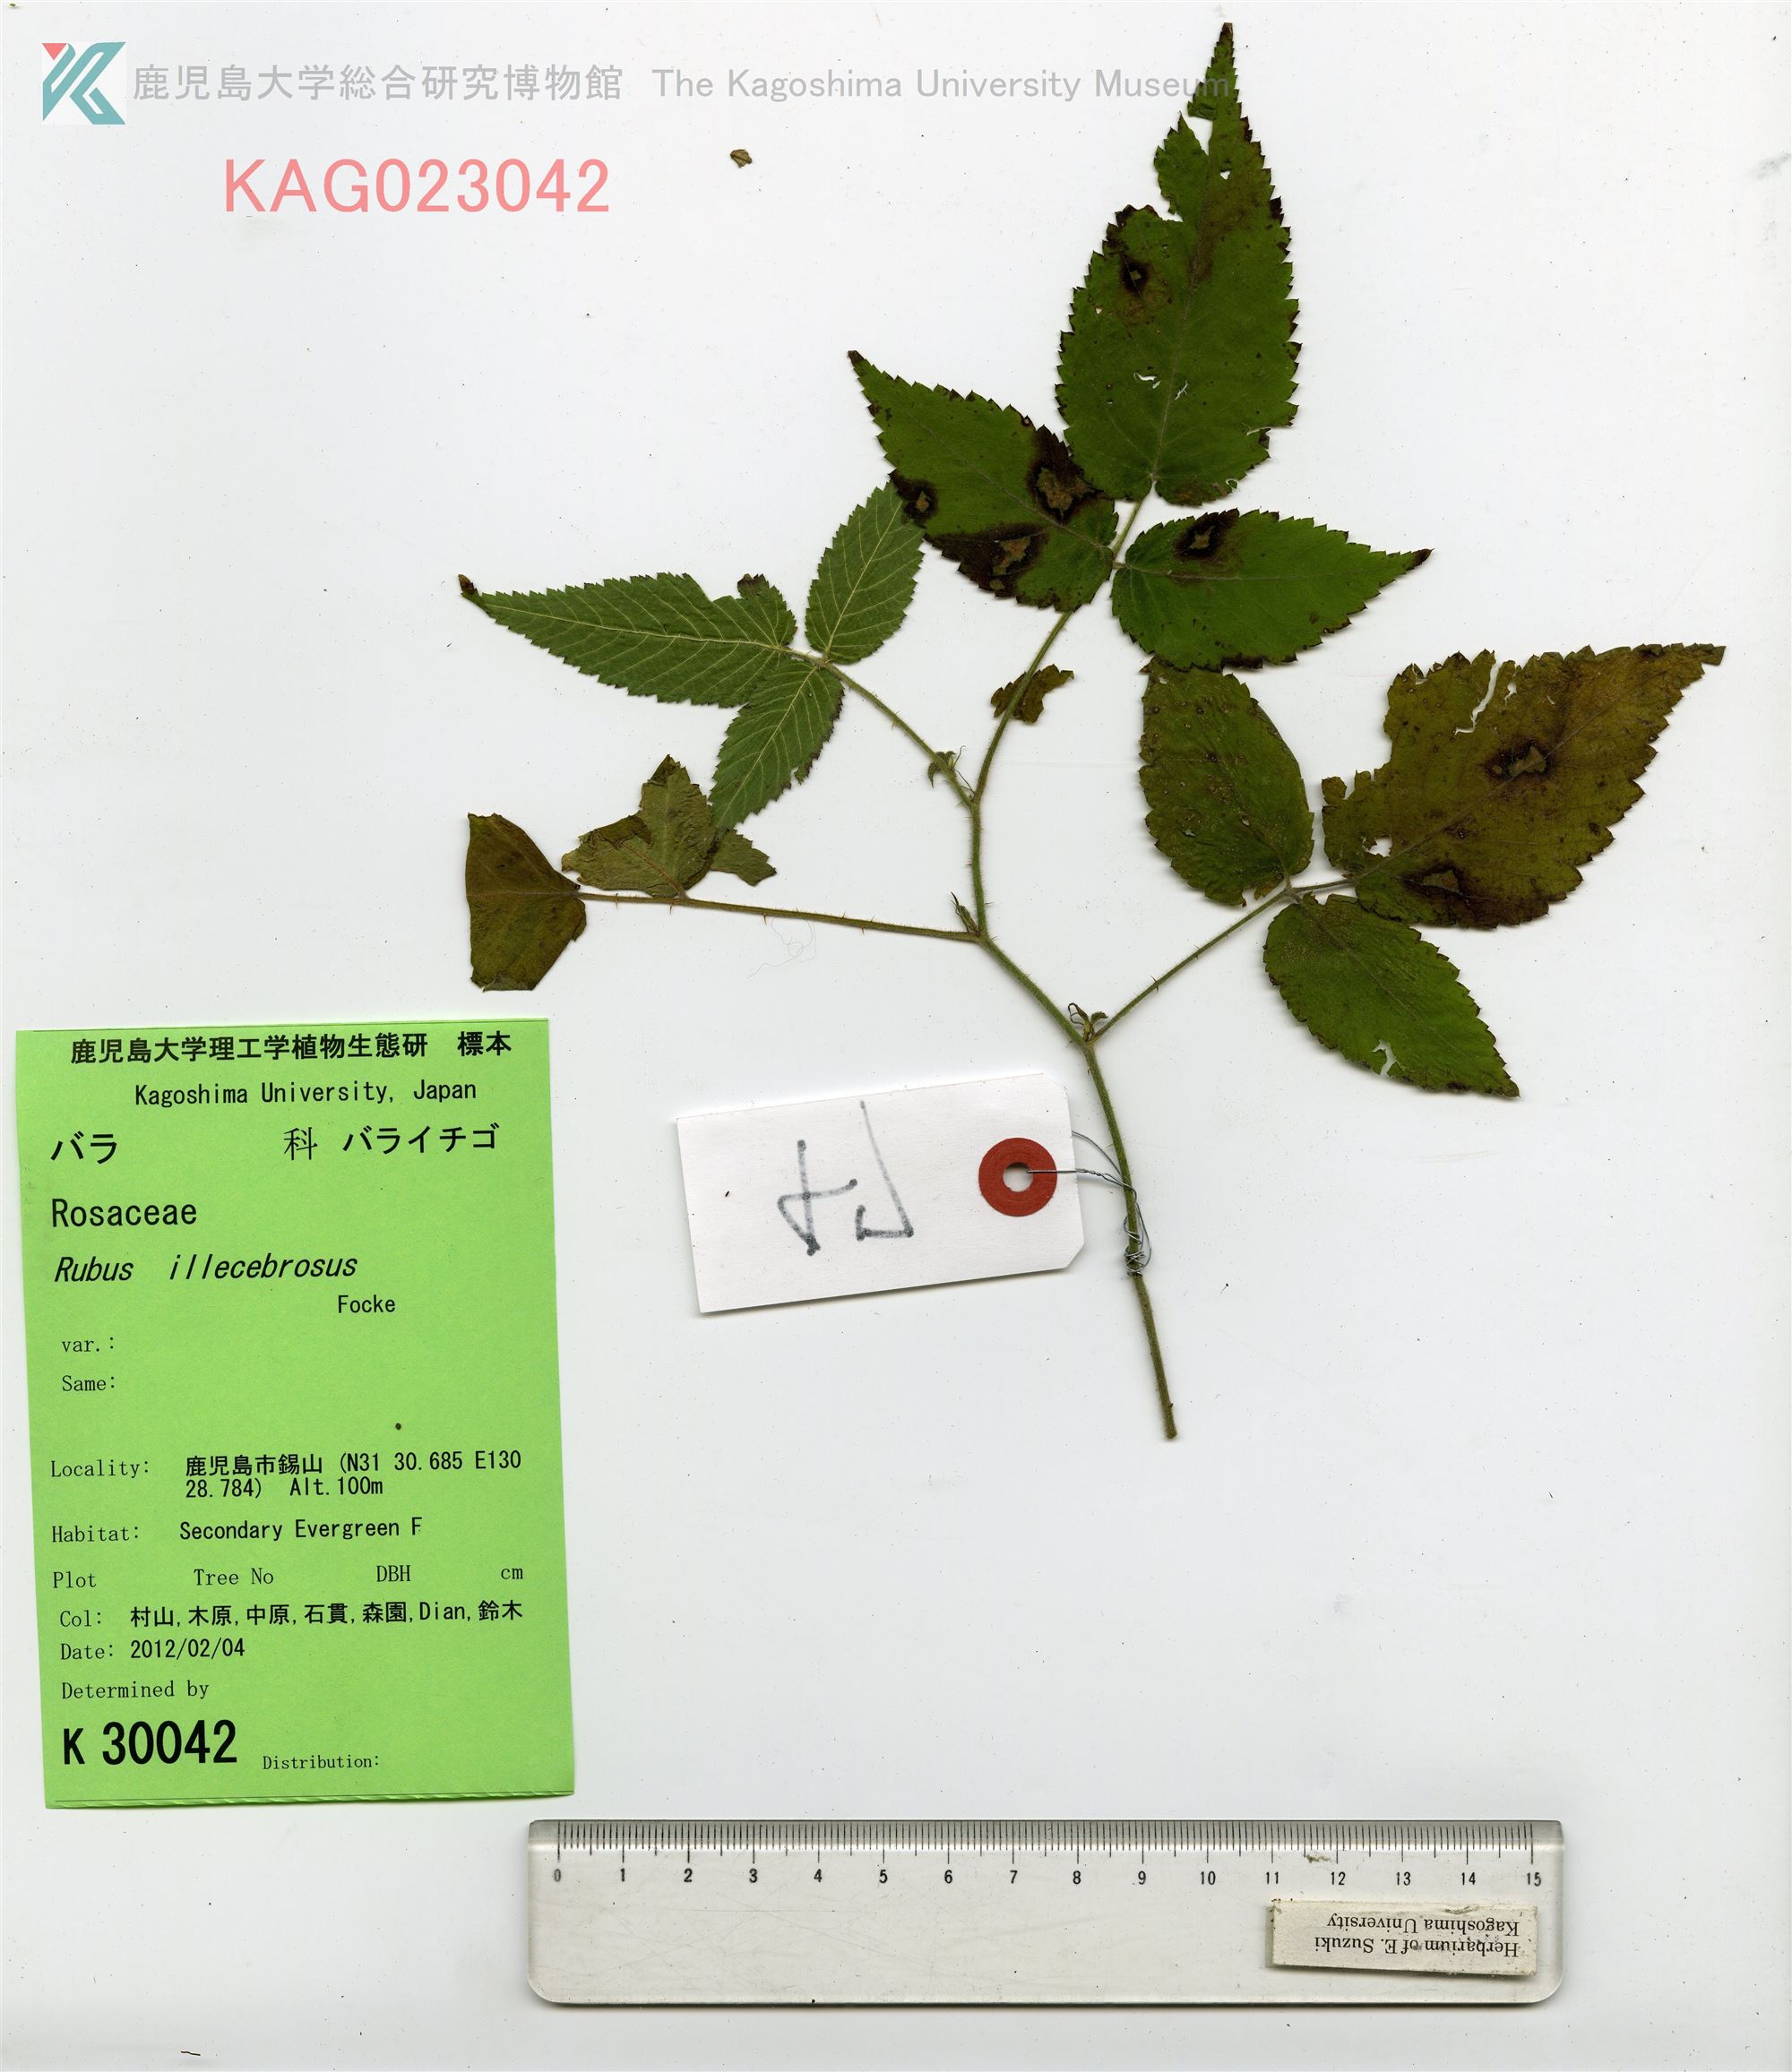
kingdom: Plantae
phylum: Tracheophyta
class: Magnoliopsida
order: Rosales
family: Rosaceae
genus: Rubus
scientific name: Rubus illecebrosus
